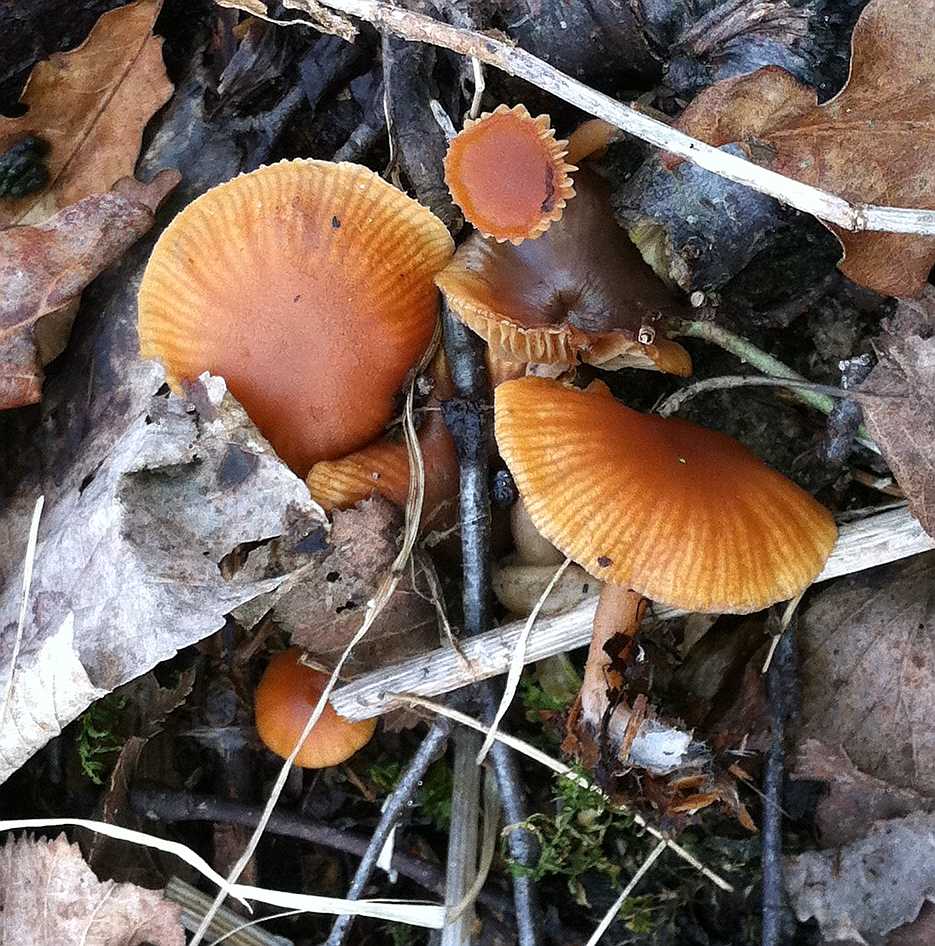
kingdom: Fungi
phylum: Basidiomycota
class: Agaricomycetes
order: Agaricales
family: Tubariaceae
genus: Tubaria
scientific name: Tubaria furfuracea
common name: kliddet fnughat
